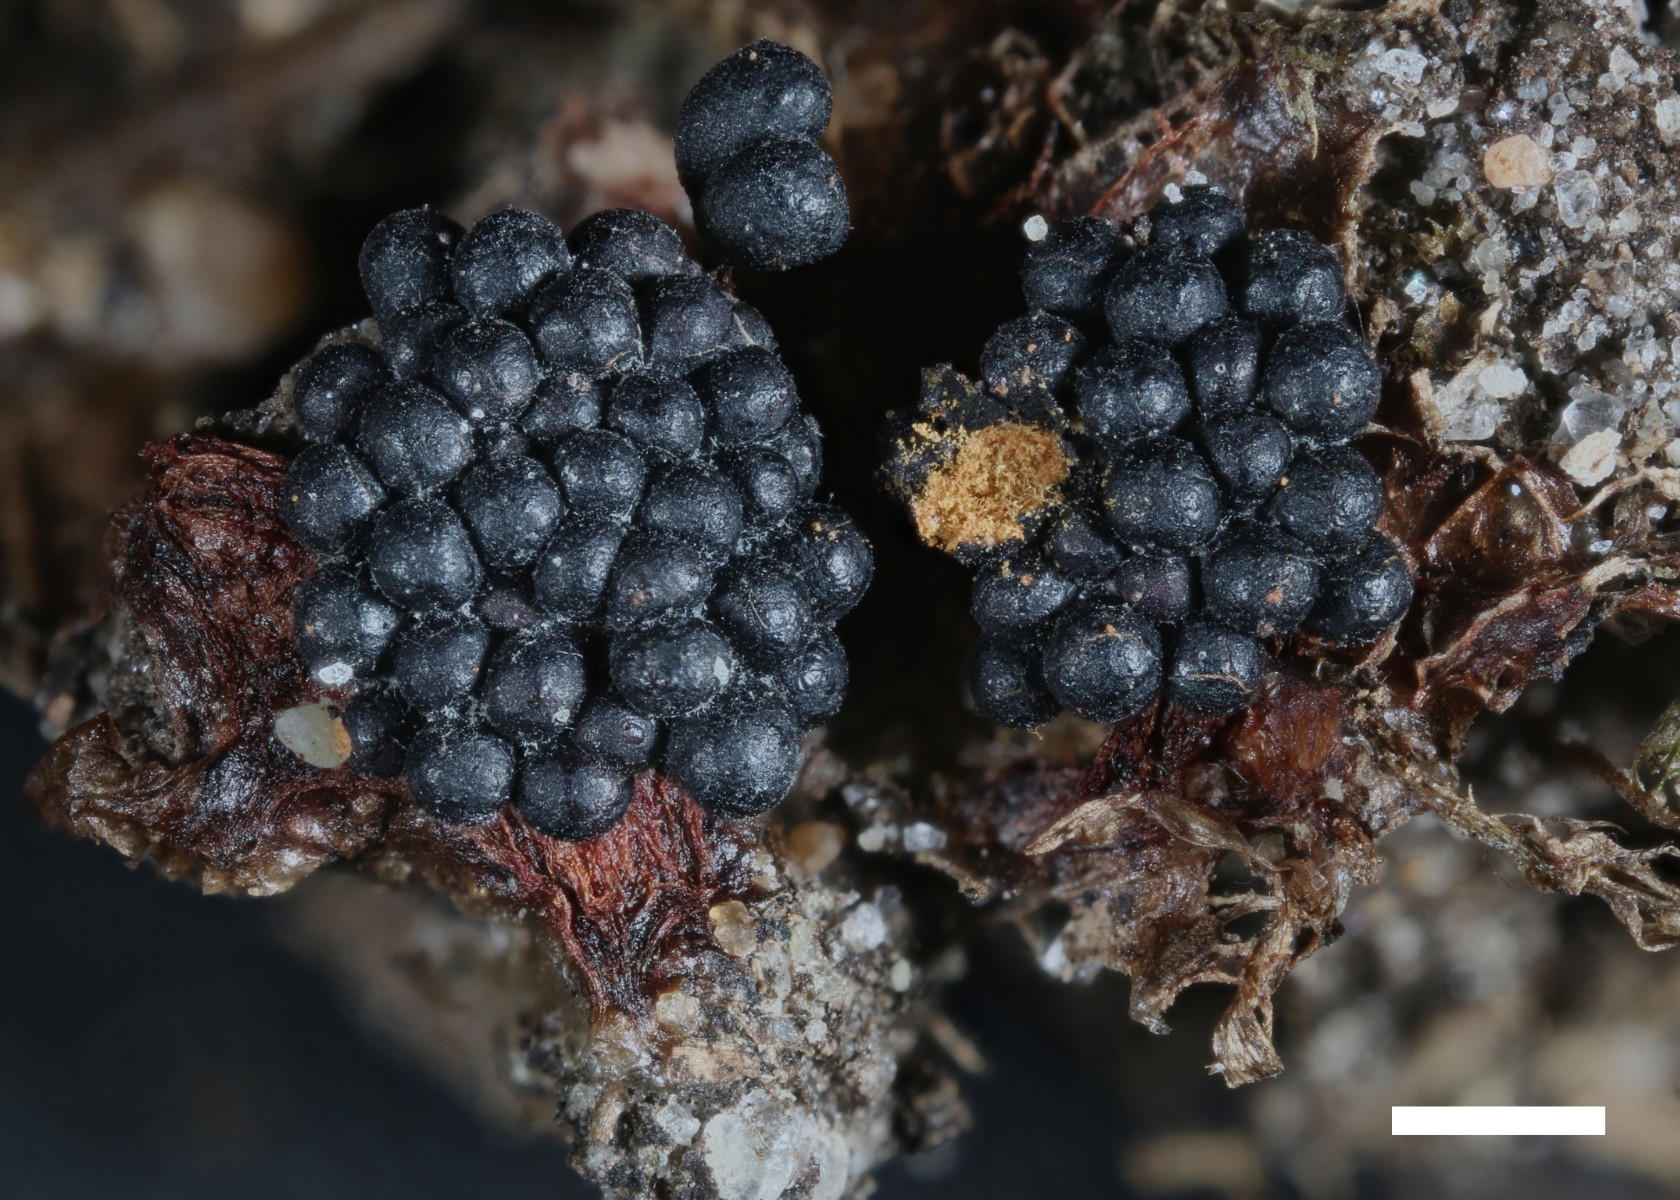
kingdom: Protozoa
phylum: Mycetozoa
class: Myxomycetes
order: Trichiales
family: Trichiaceae
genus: Metatrichia
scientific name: Metatrichia floriformis
